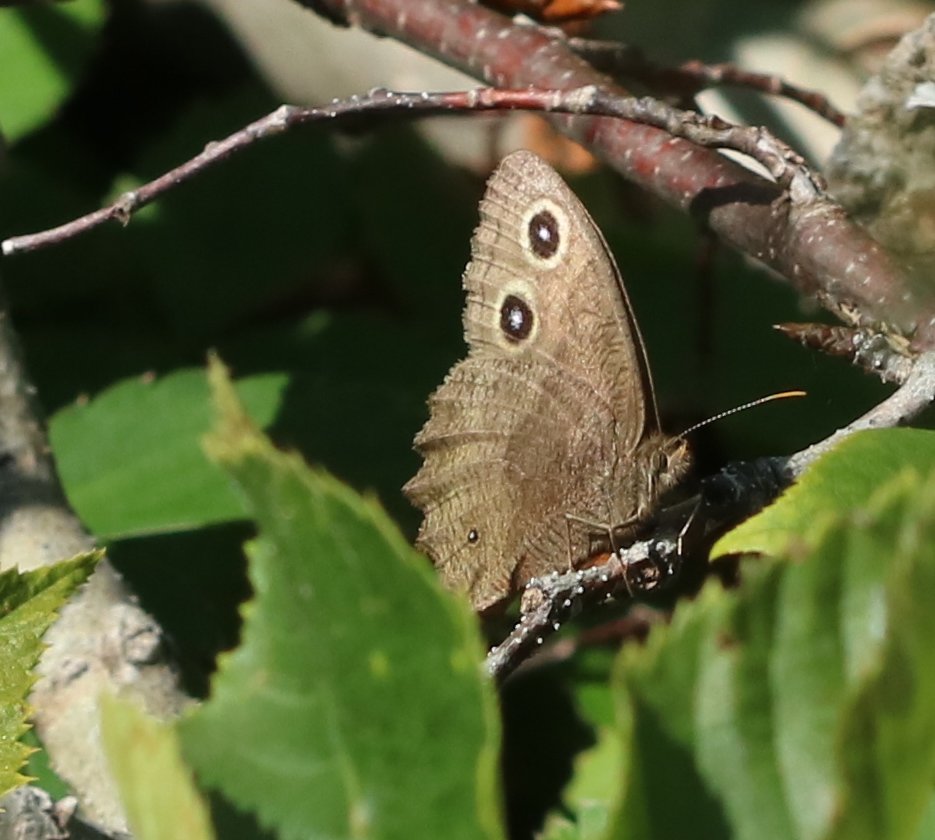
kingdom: Animalia
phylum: Arthropoda
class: Insecta
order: Lepidoptera
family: Nymphalidae
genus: Cercyonis
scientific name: Cercyonis pegala
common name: Common Wood-Nymph
